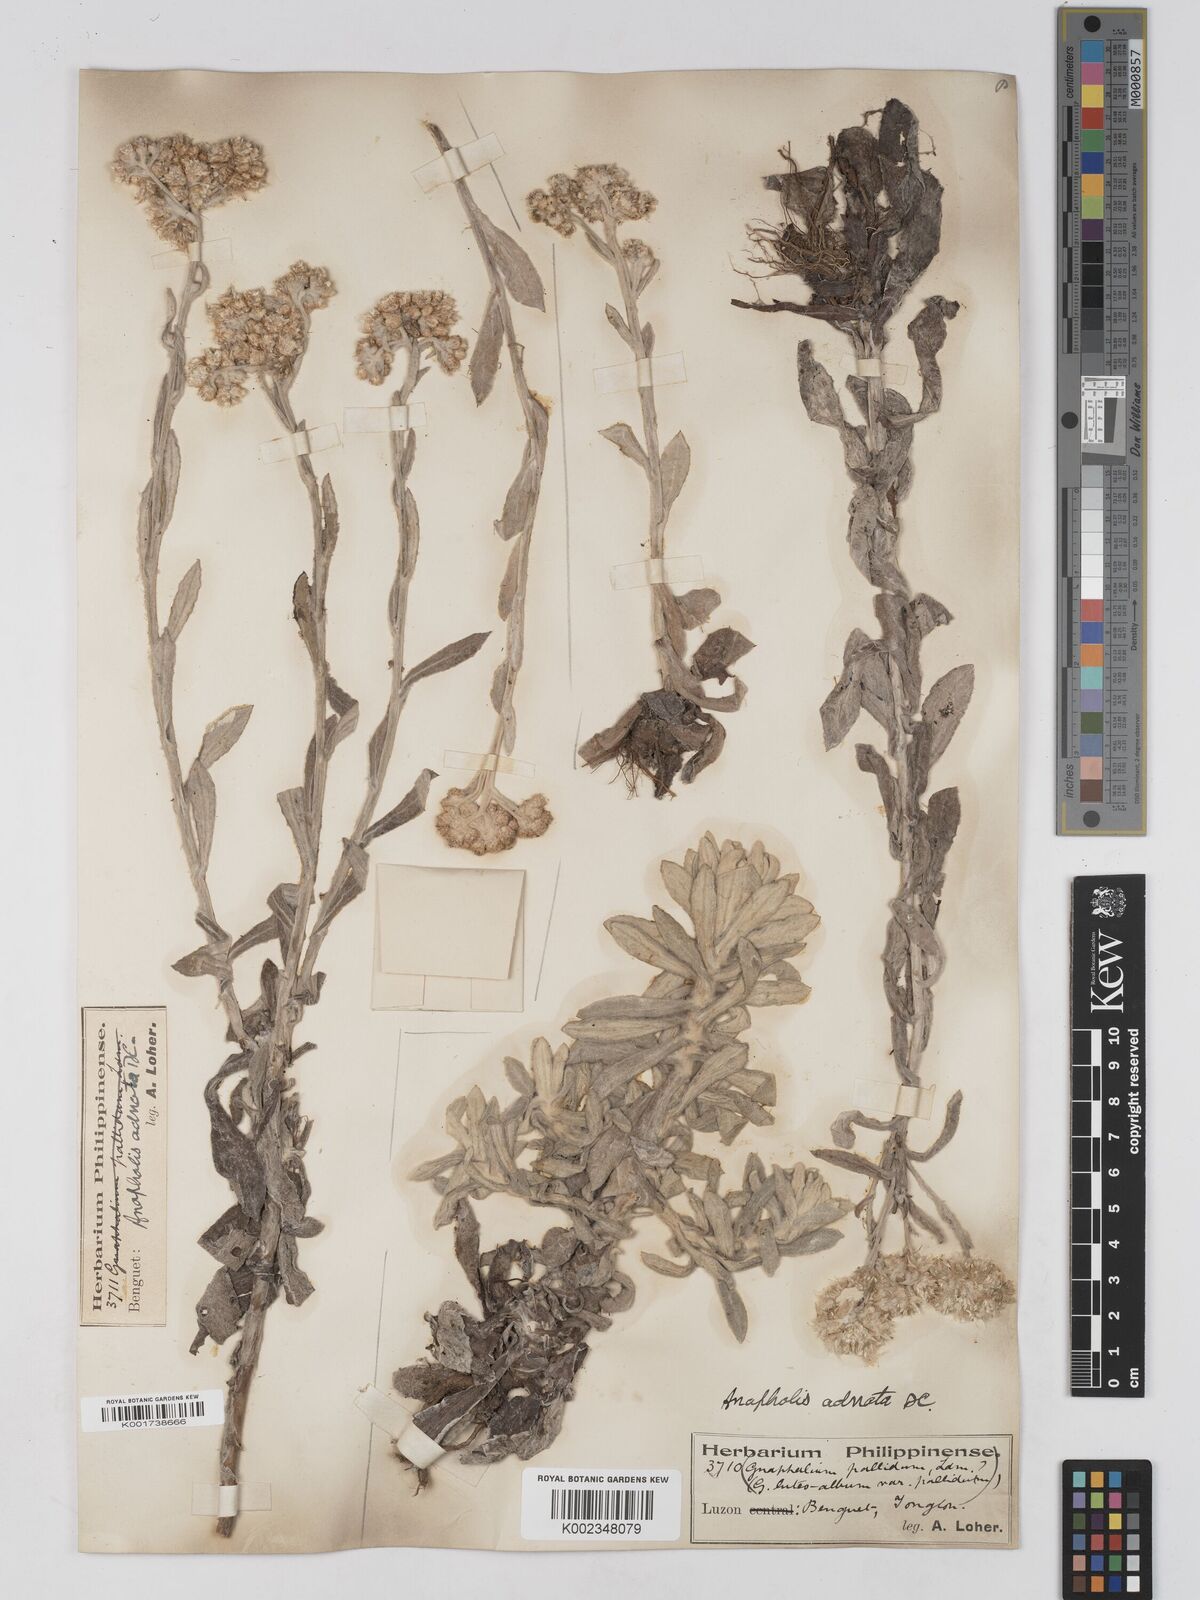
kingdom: Plantae
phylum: Tracheophyta
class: Magnoliopsida
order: Asterales
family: Asteraceae
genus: Pseudognaphalium
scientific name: Pseudognaphalium adnatum
